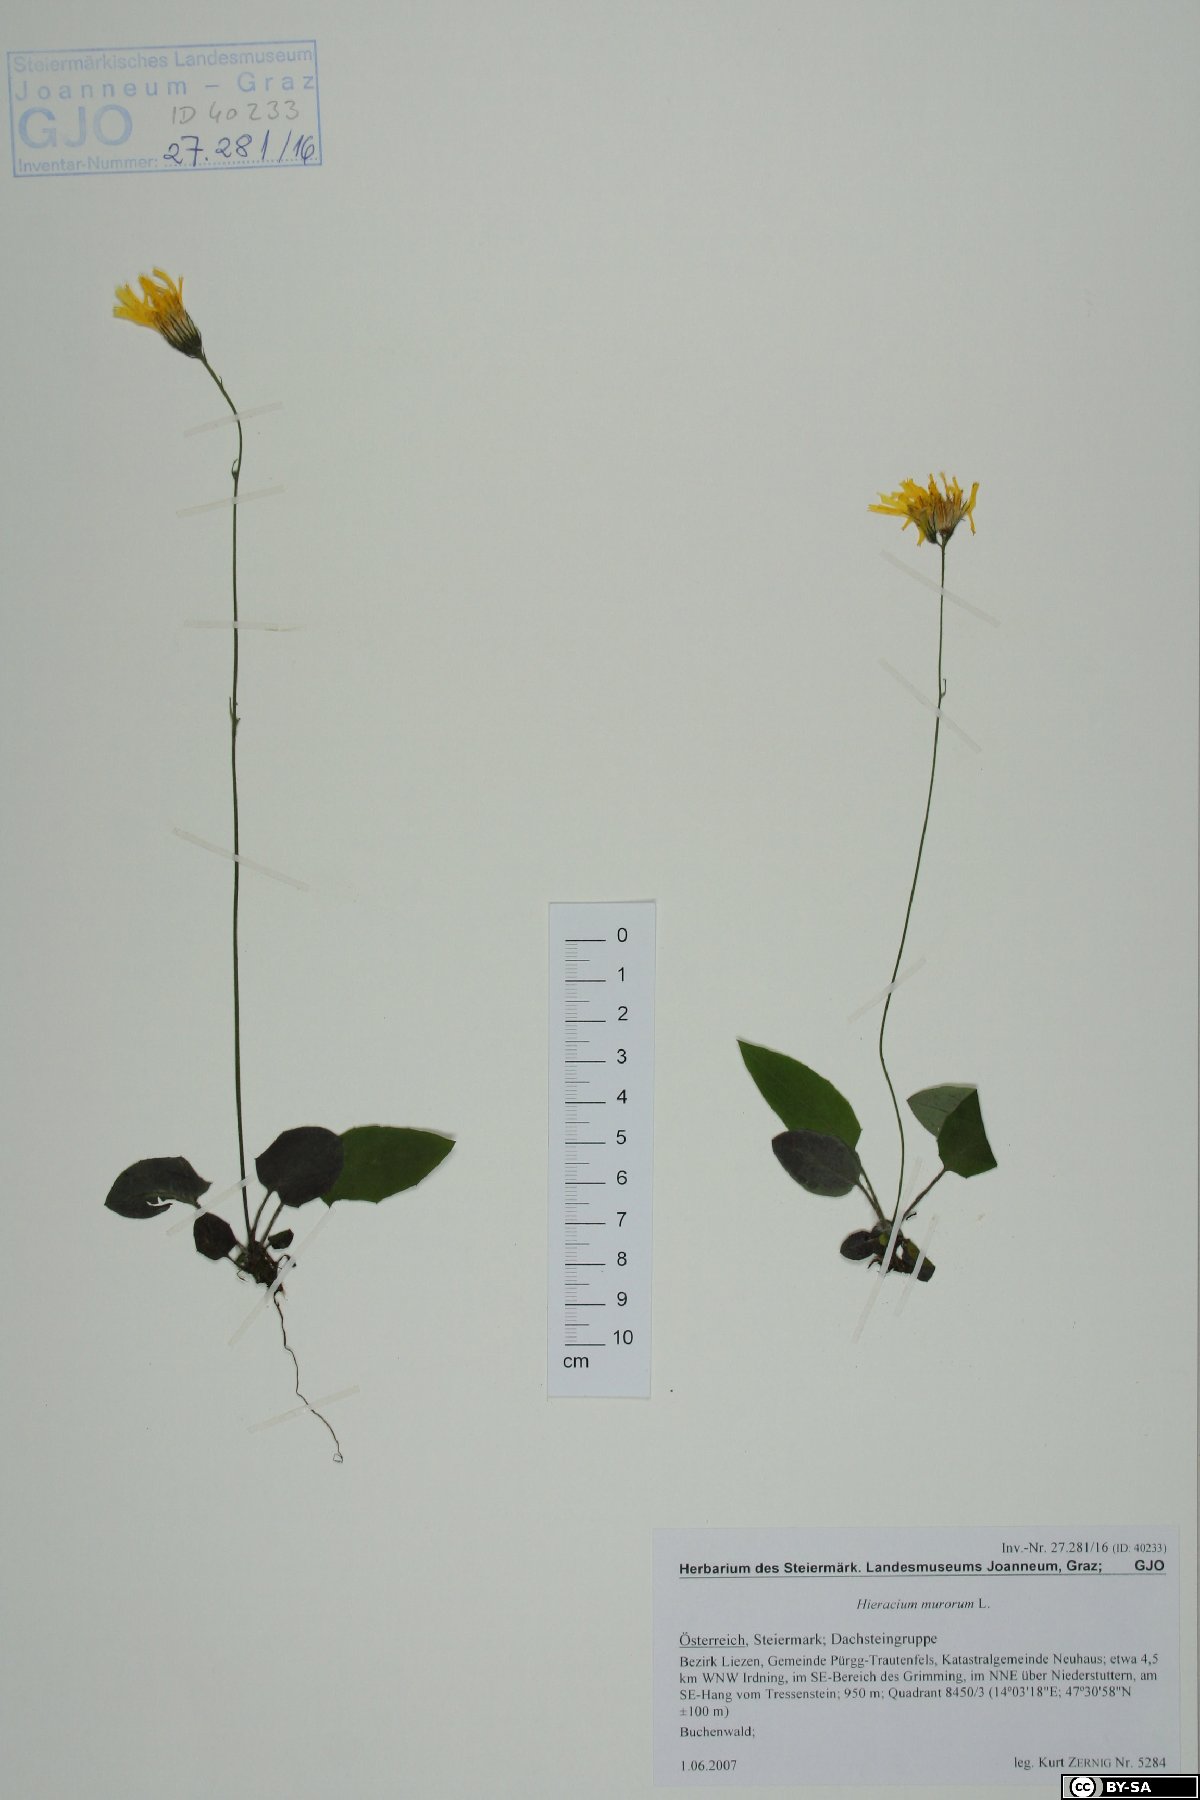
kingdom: Plantae
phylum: Tracheophyta
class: Magnoliopsida
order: Asterales
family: Asteraceae
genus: Hieracium
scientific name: Hieracium murorum
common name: Wall hawkweed
